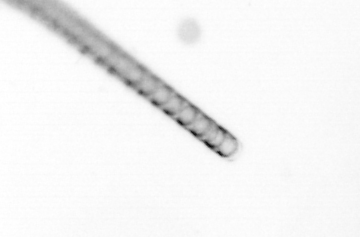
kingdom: Chromista
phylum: Ochrophyta
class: Bacillariophyceae
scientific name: Bacillariophyceae
